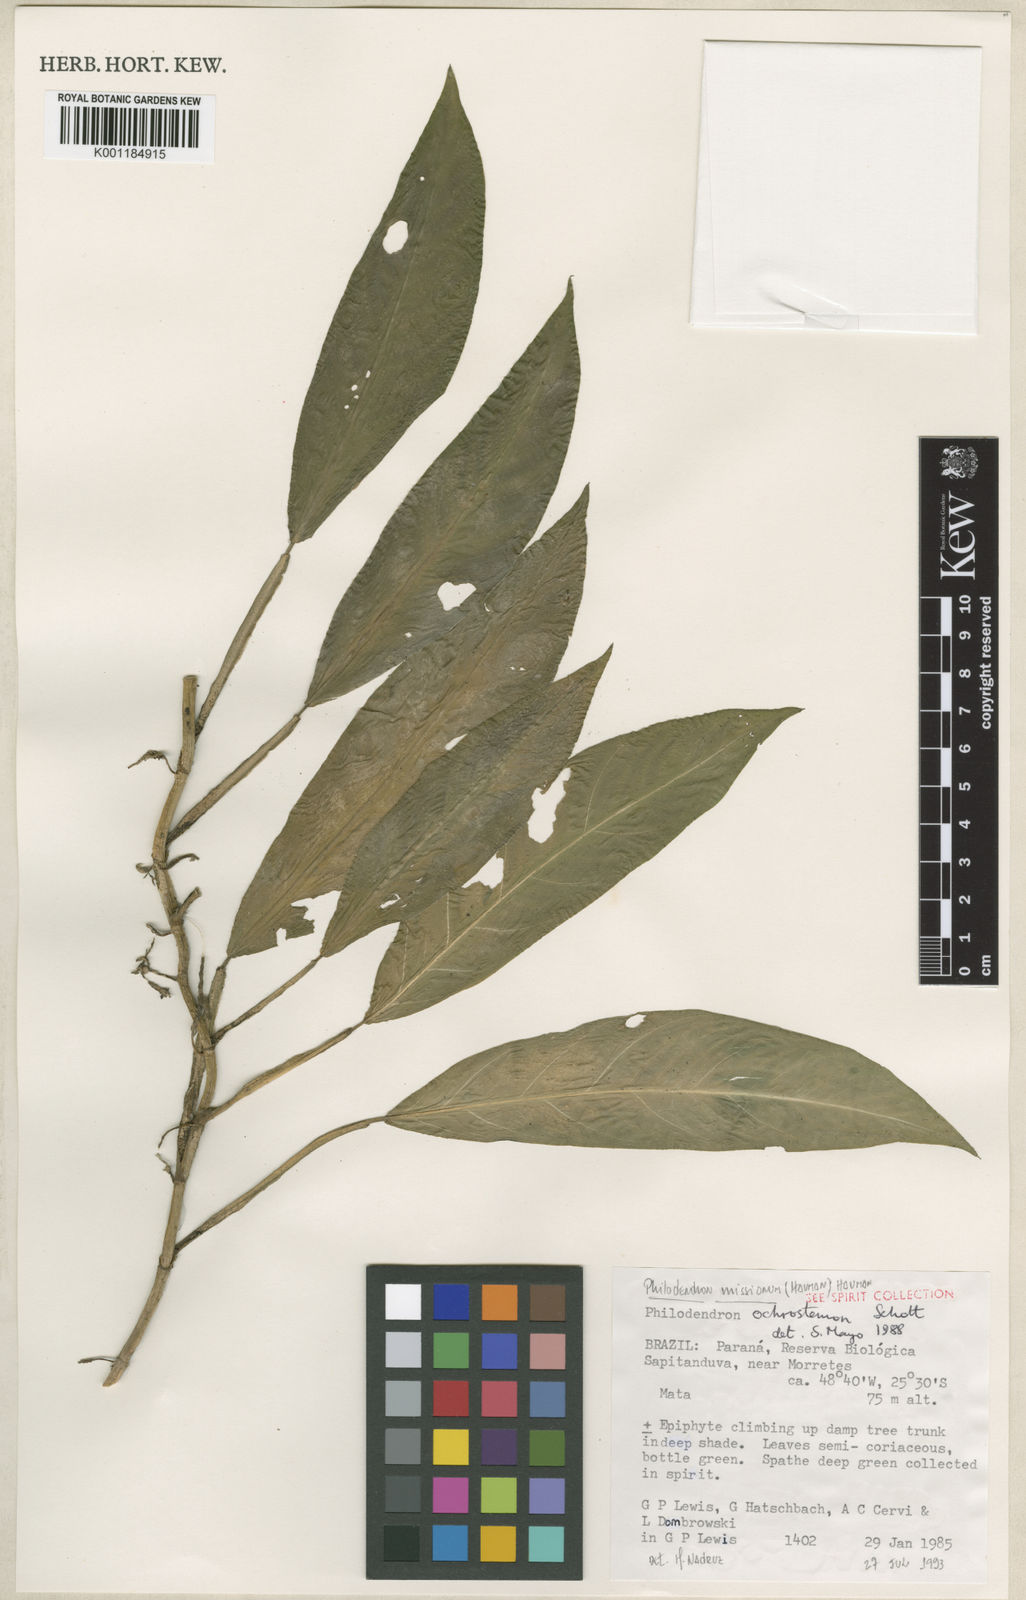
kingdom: Plantae
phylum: Tracheophyta
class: Liliopsida
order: Alismatales
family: Araceae
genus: Philodendron
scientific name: Philodendron missionum
